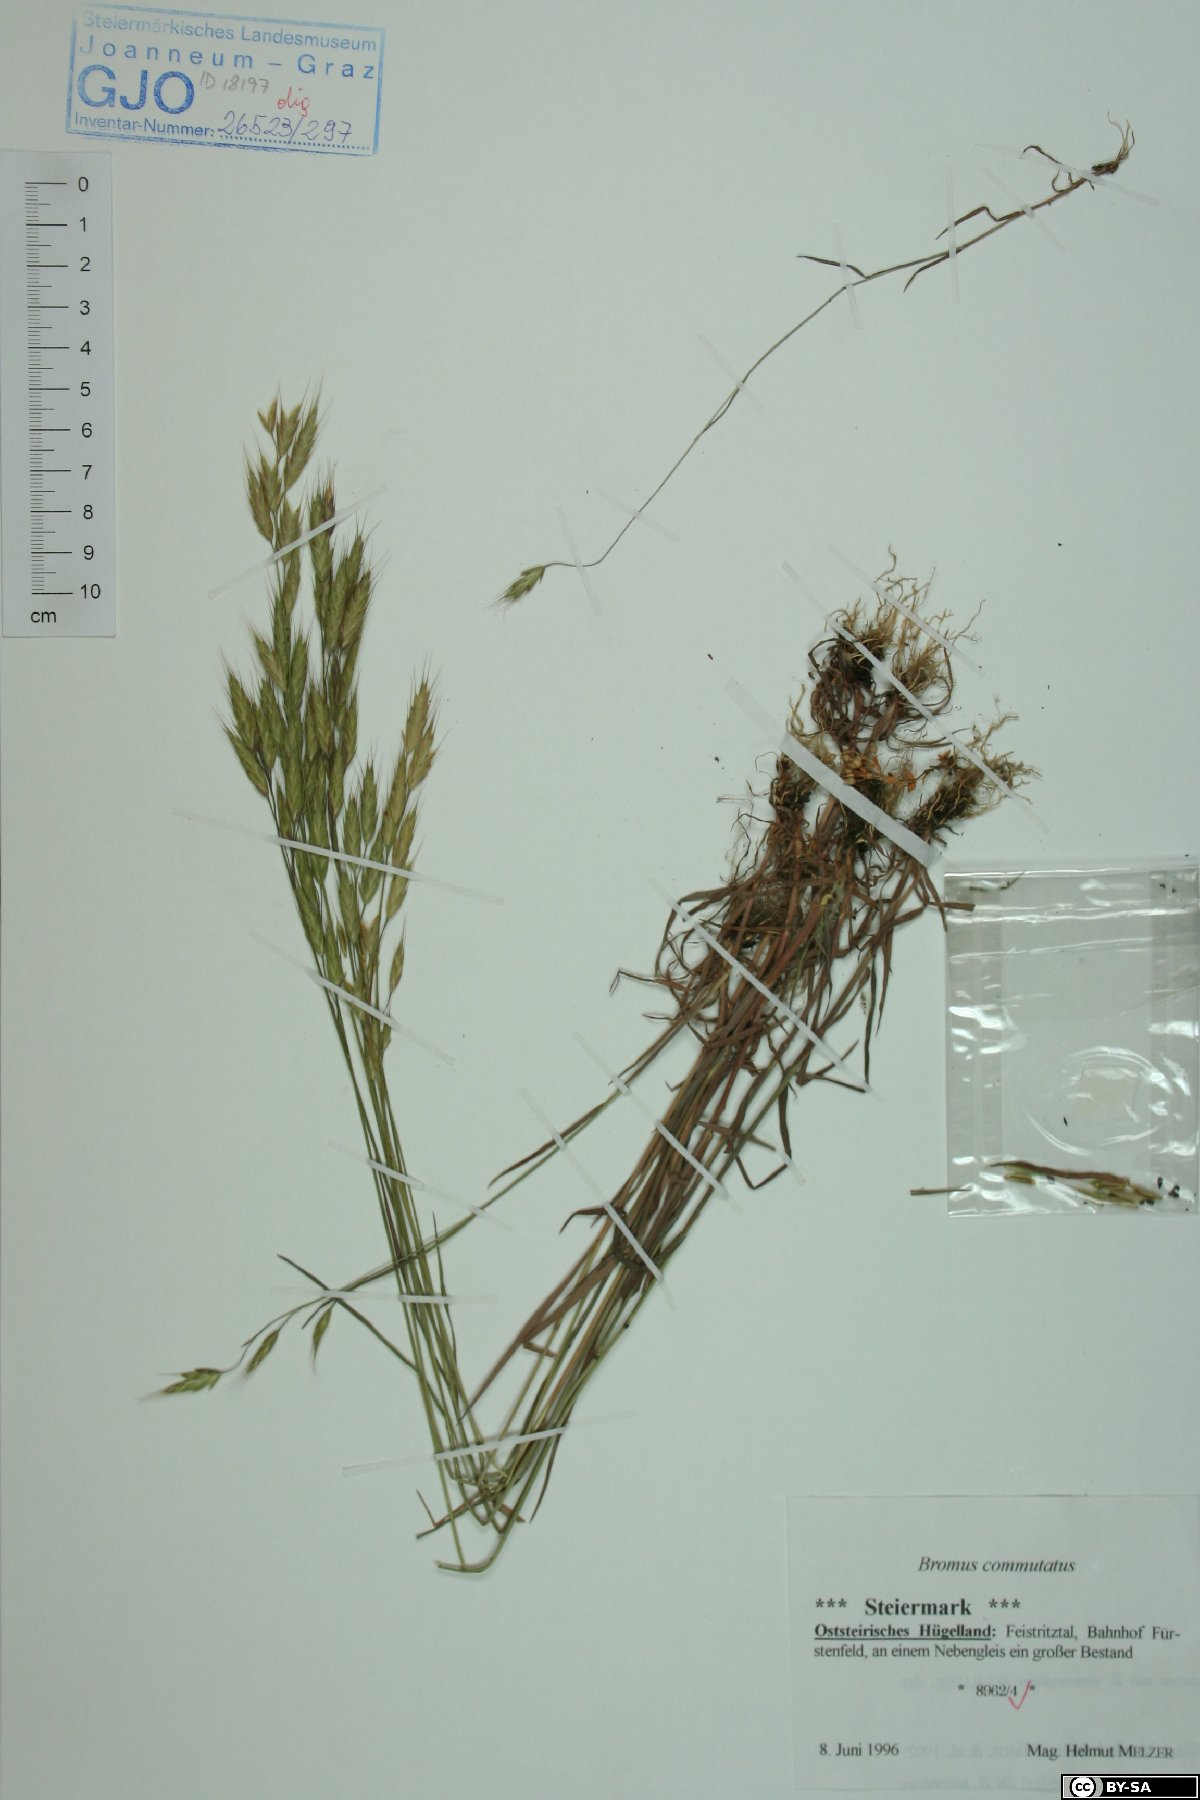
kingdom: Plantae
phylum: Tracheophyta
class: Liliopsida
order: Poales
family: Poaceae
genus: Bromus
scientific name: Bromus commutatus
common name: Meadow brome
